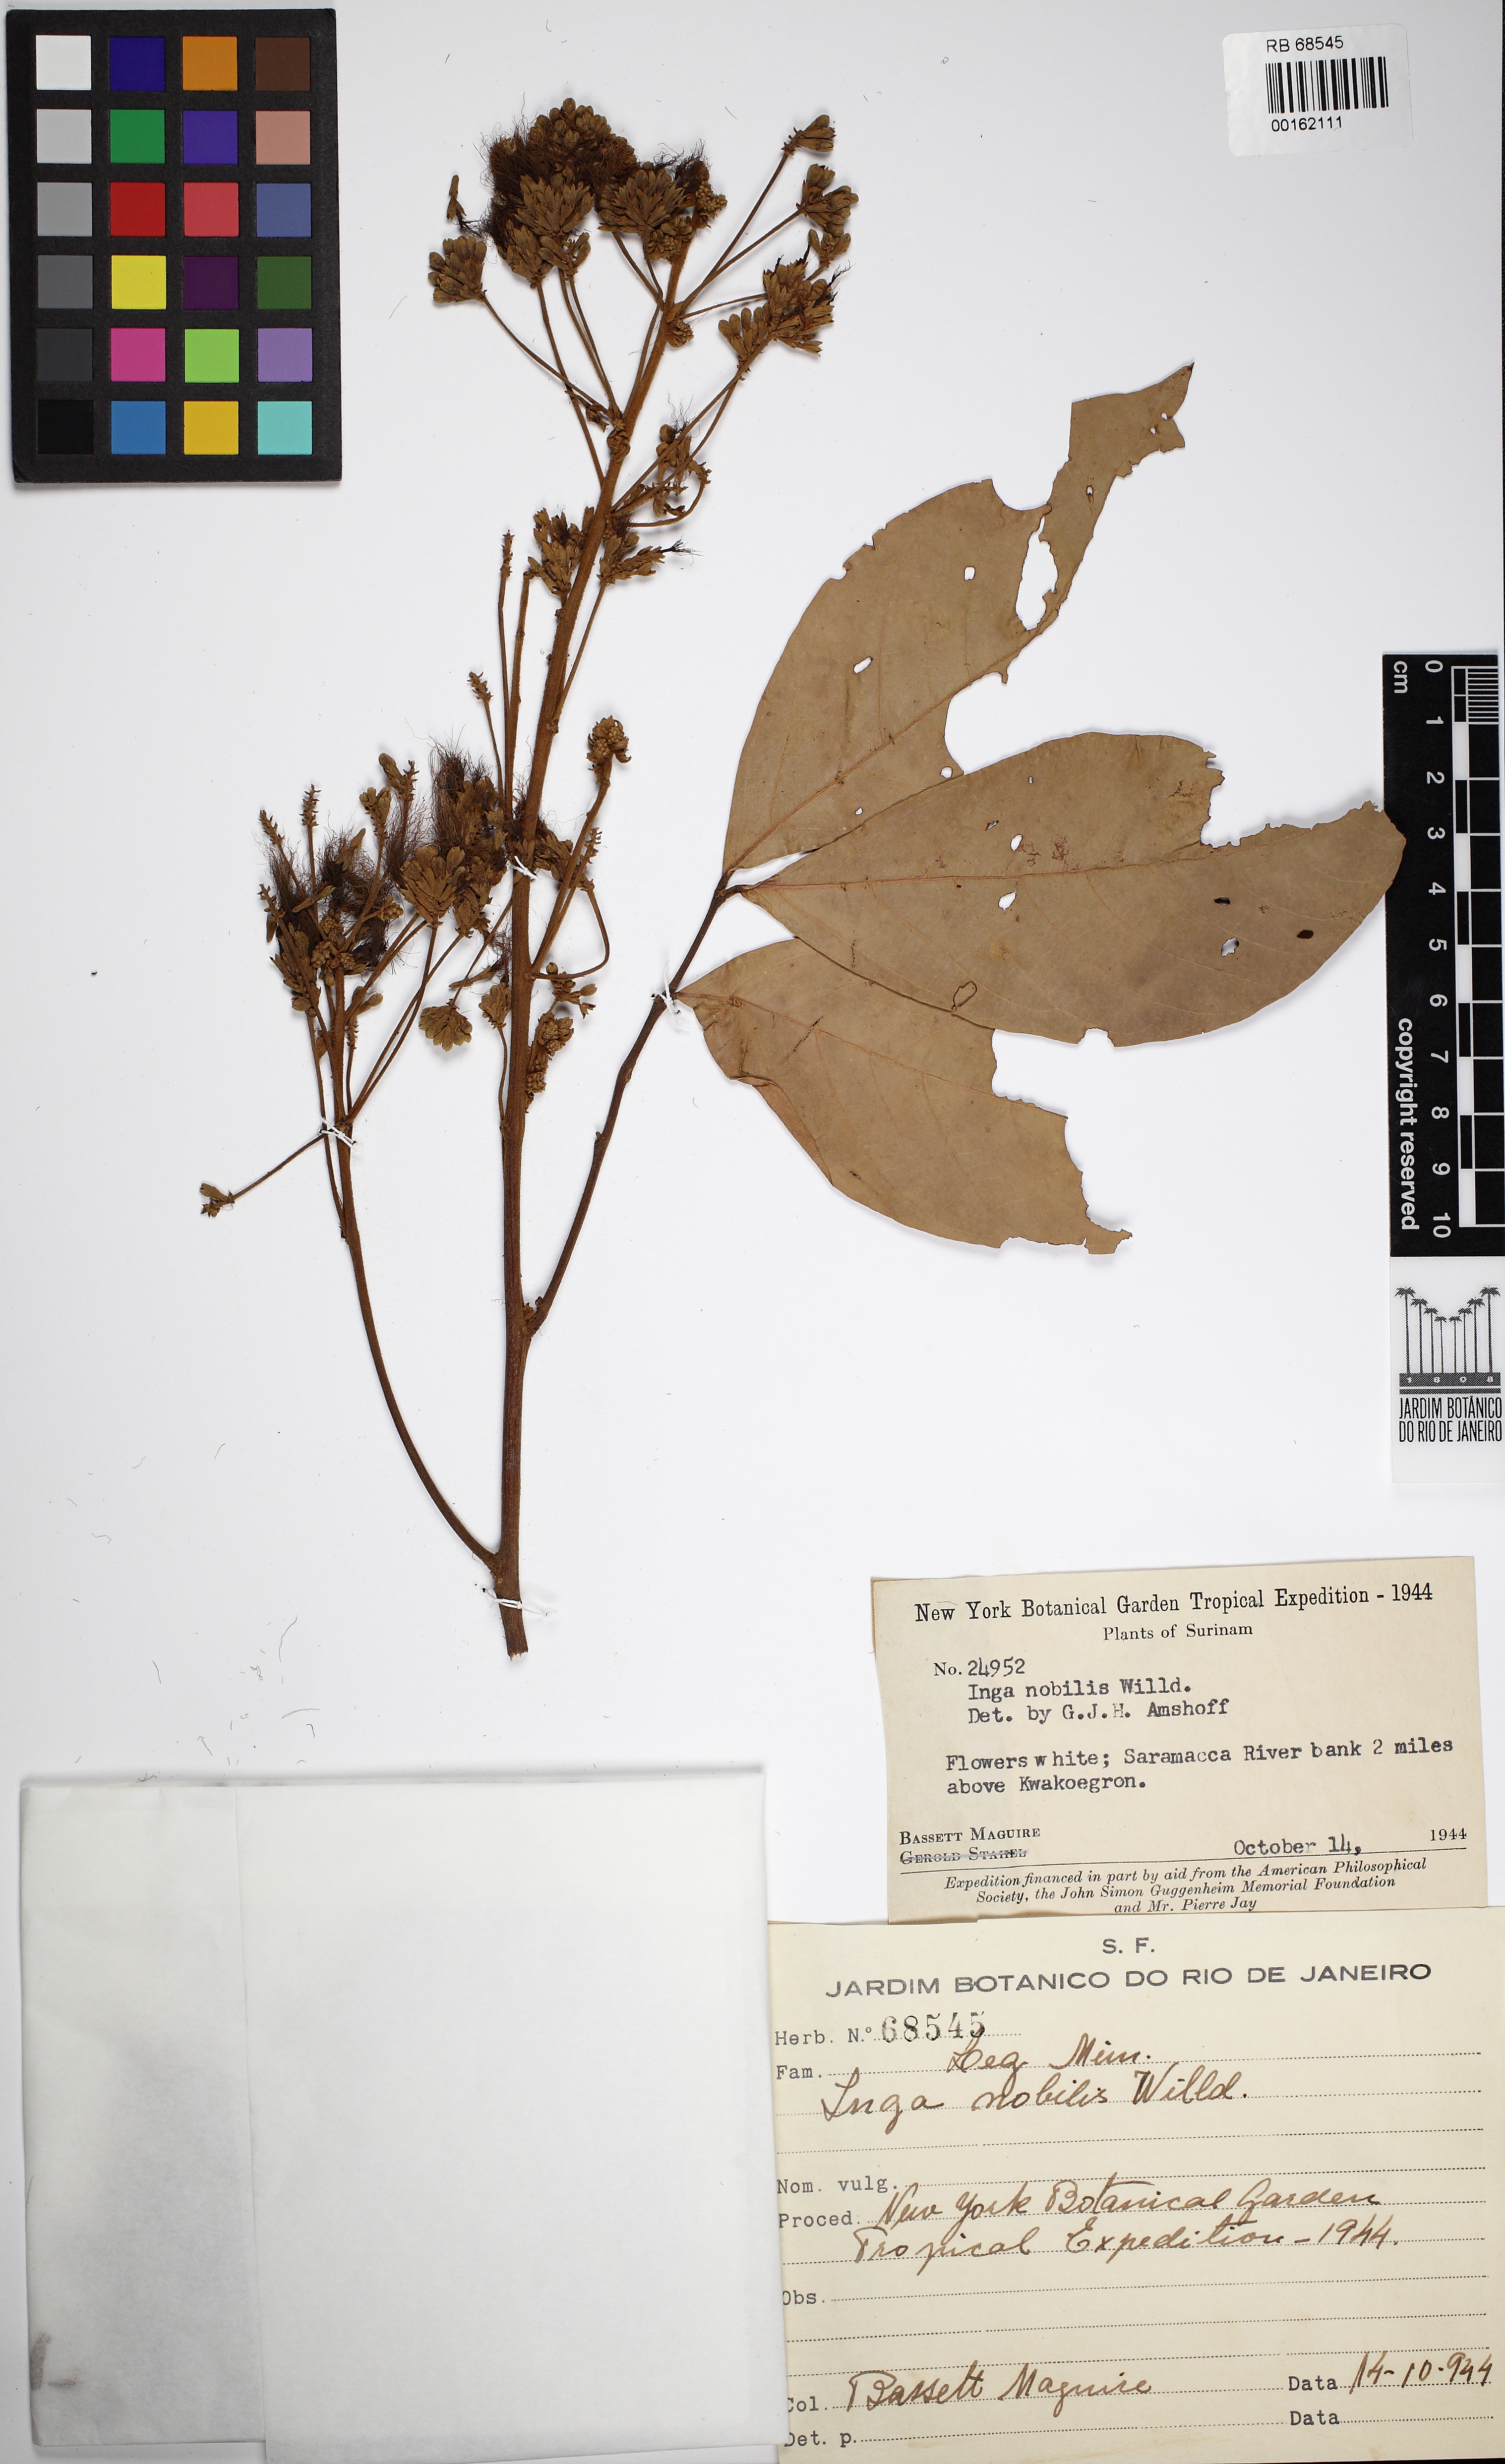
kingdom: Plantae
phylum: Tracheophyta
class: Magnoliopsida
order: Fabales
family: Fabaceae
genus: Inga
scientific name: Inga nobilis
